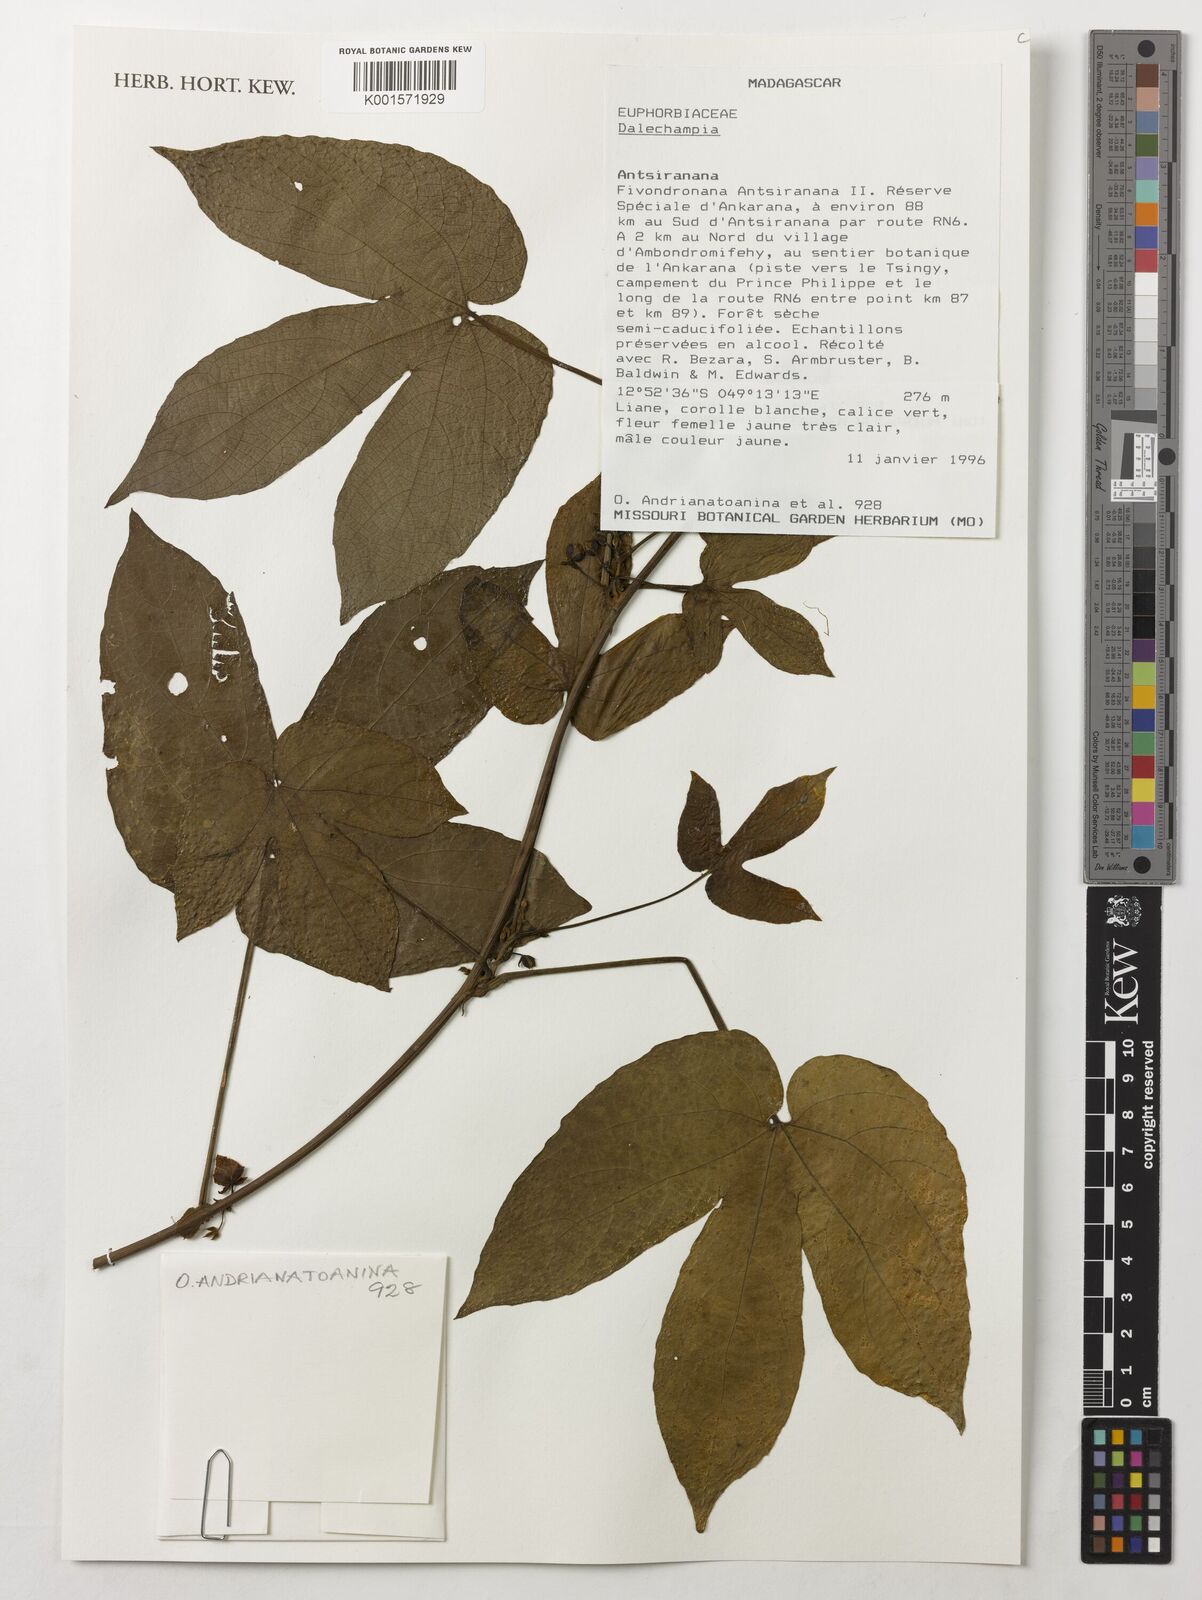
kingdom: Plantae
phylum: Tracheophyta
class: Magnoliopsida
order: Malpighiales
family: Euphorbiaceae
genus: Dalechampia
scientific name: Dalechampia
